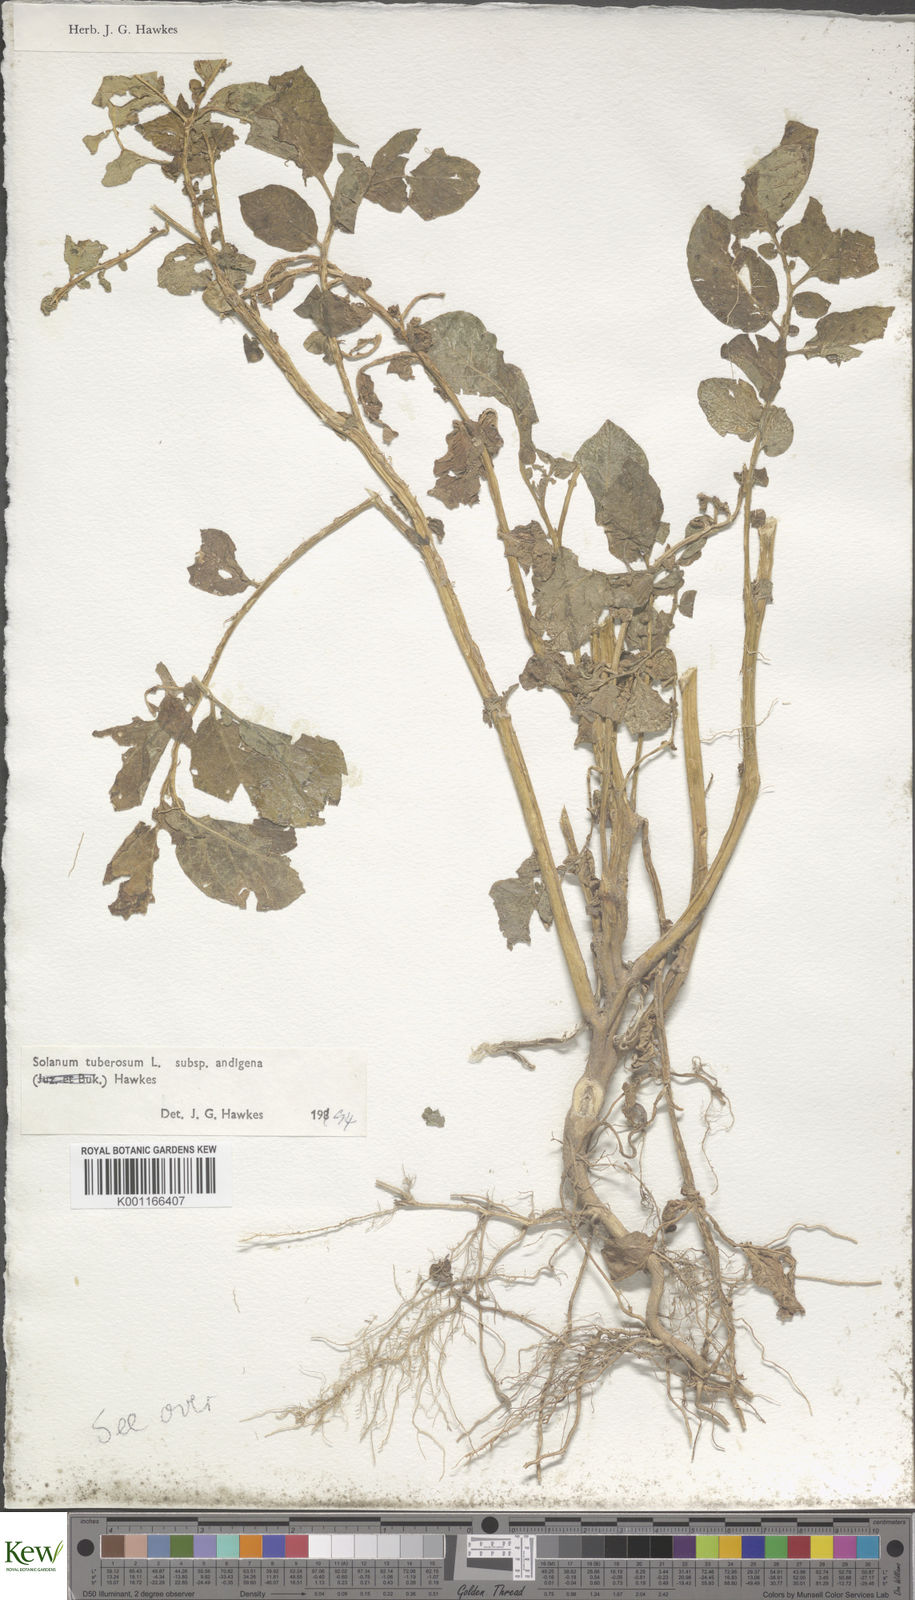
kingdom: Plantae
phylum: Tracheophyta
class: Magnoliopsida
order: Solanales
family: Solanaceae
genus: Solanum
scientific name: Solanum tuberosum
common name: Potato
